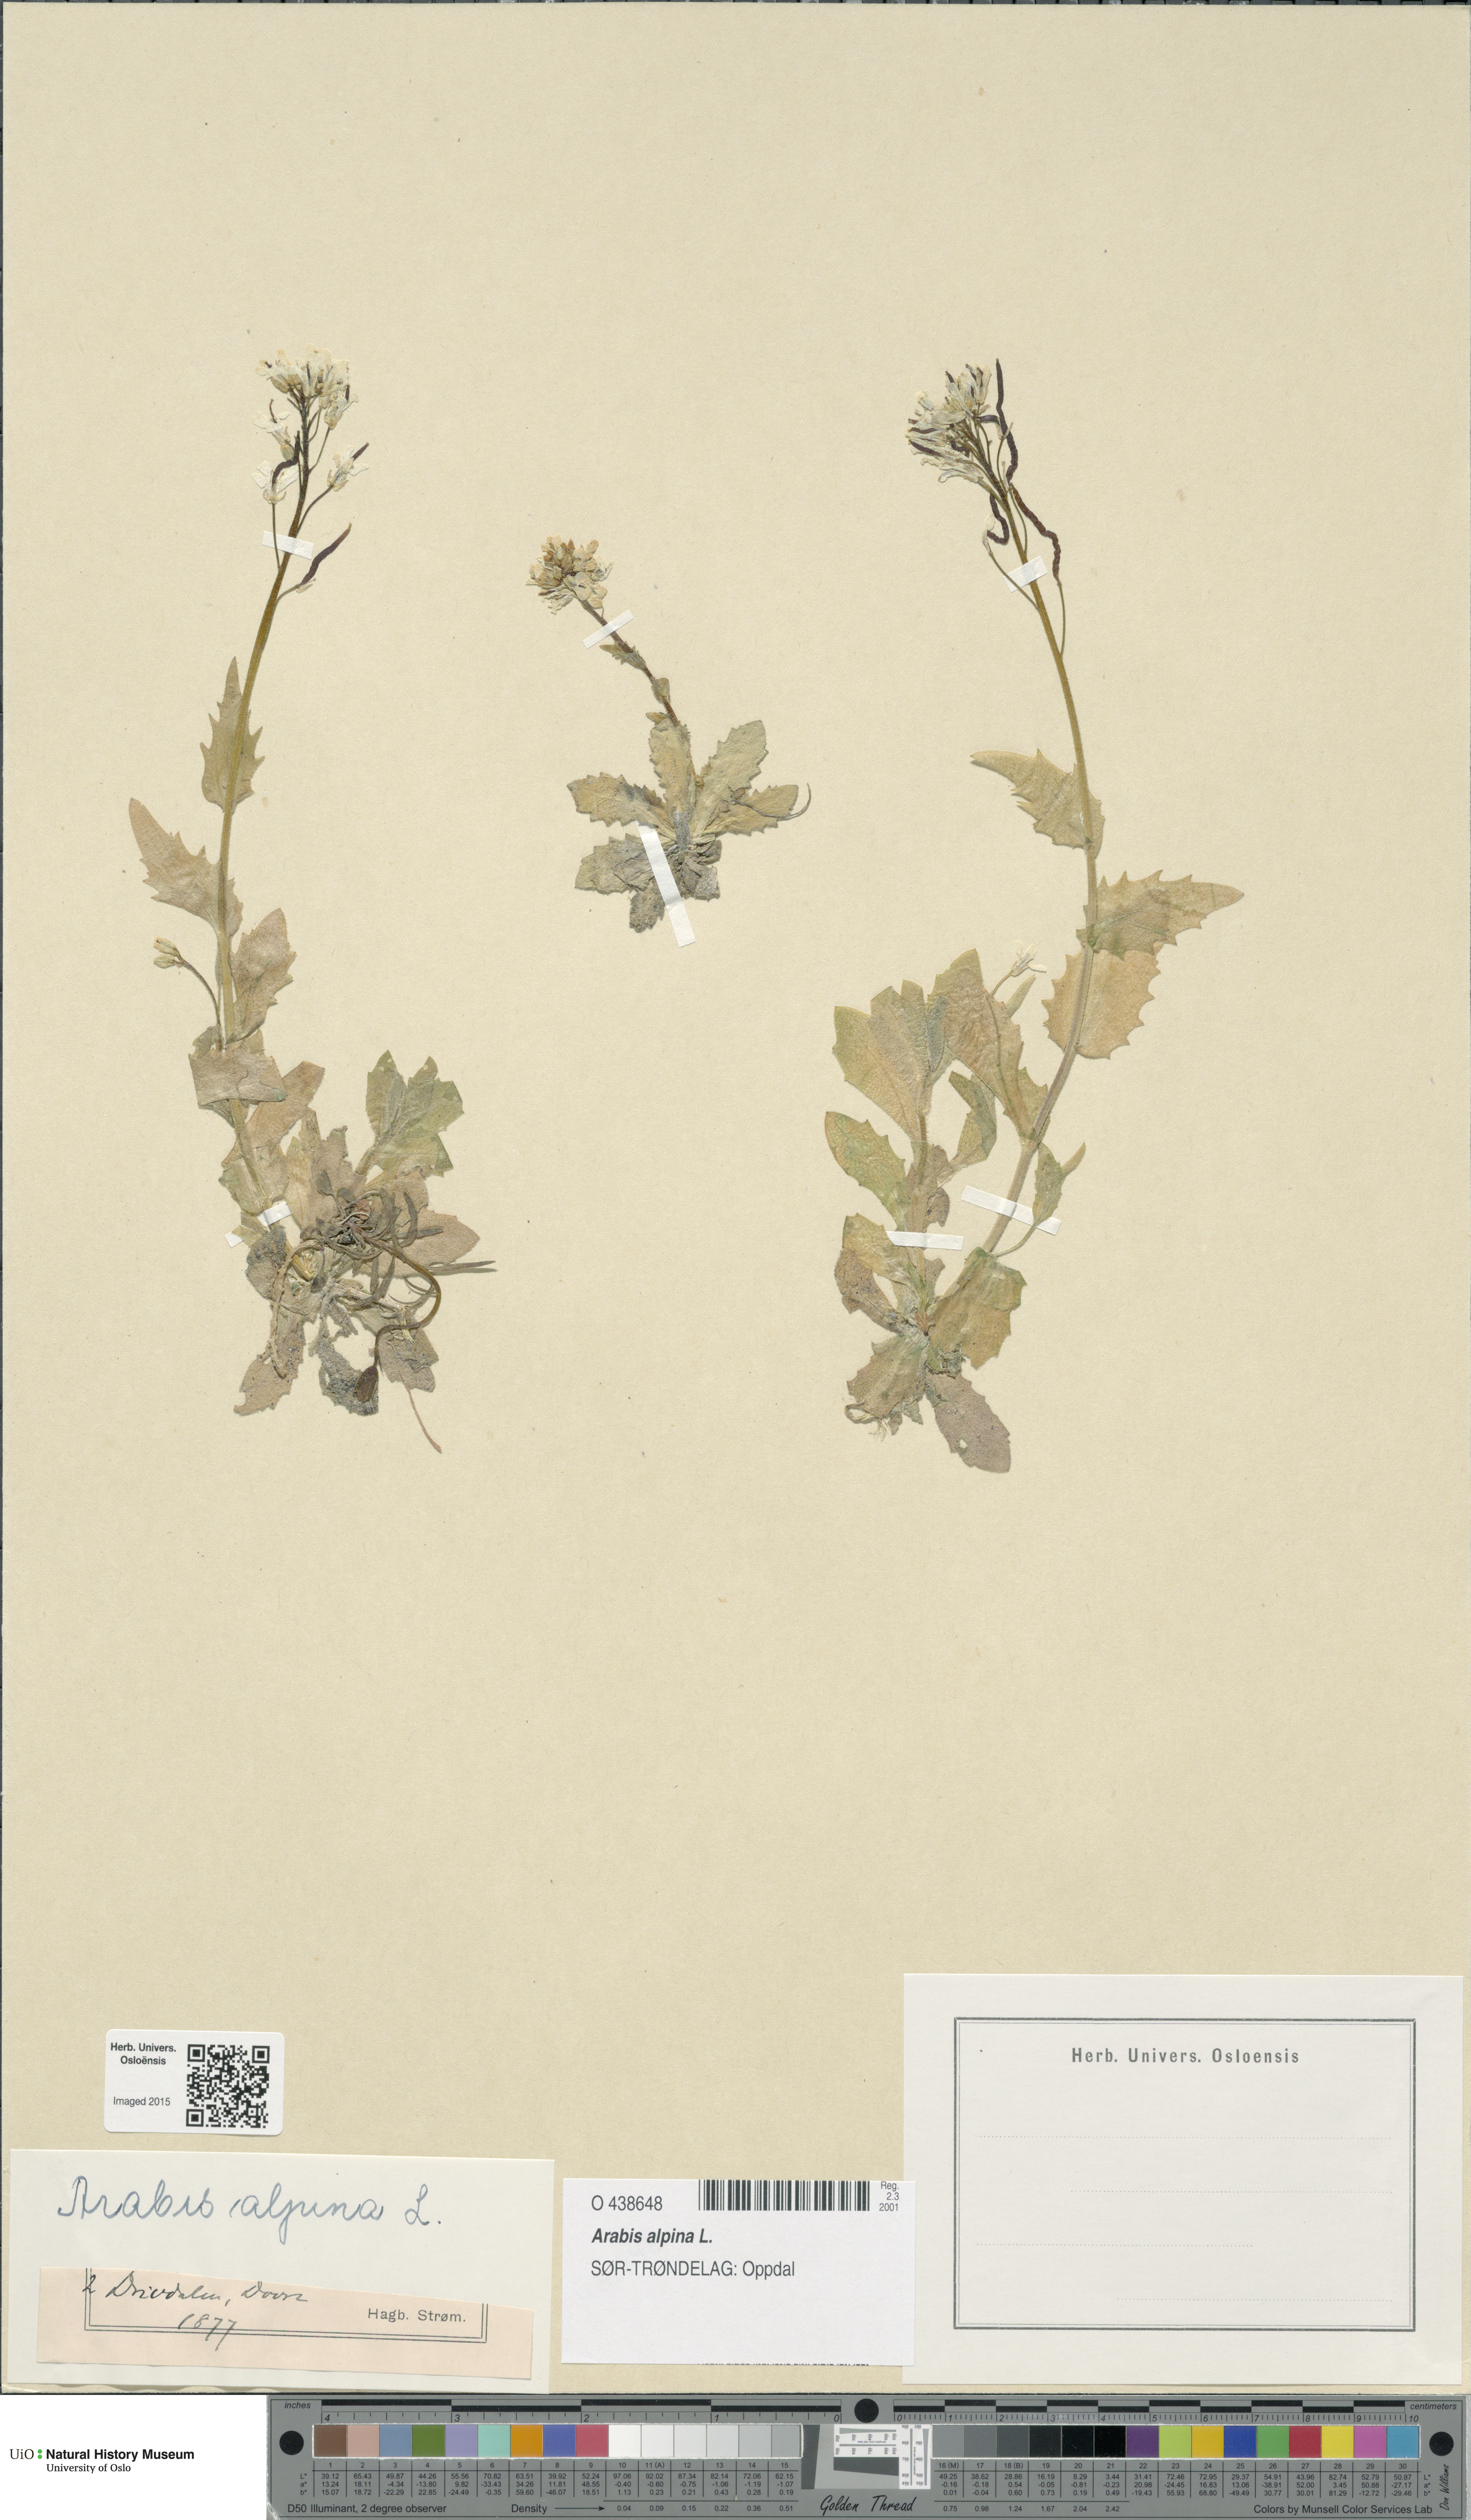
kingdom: Plantae
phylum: Tracheophyta
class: Magnoliopsida
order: Brassicales
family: Brassicaceae
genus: Arabis
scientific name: Arabis alpina
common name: Alpine rock-cress
